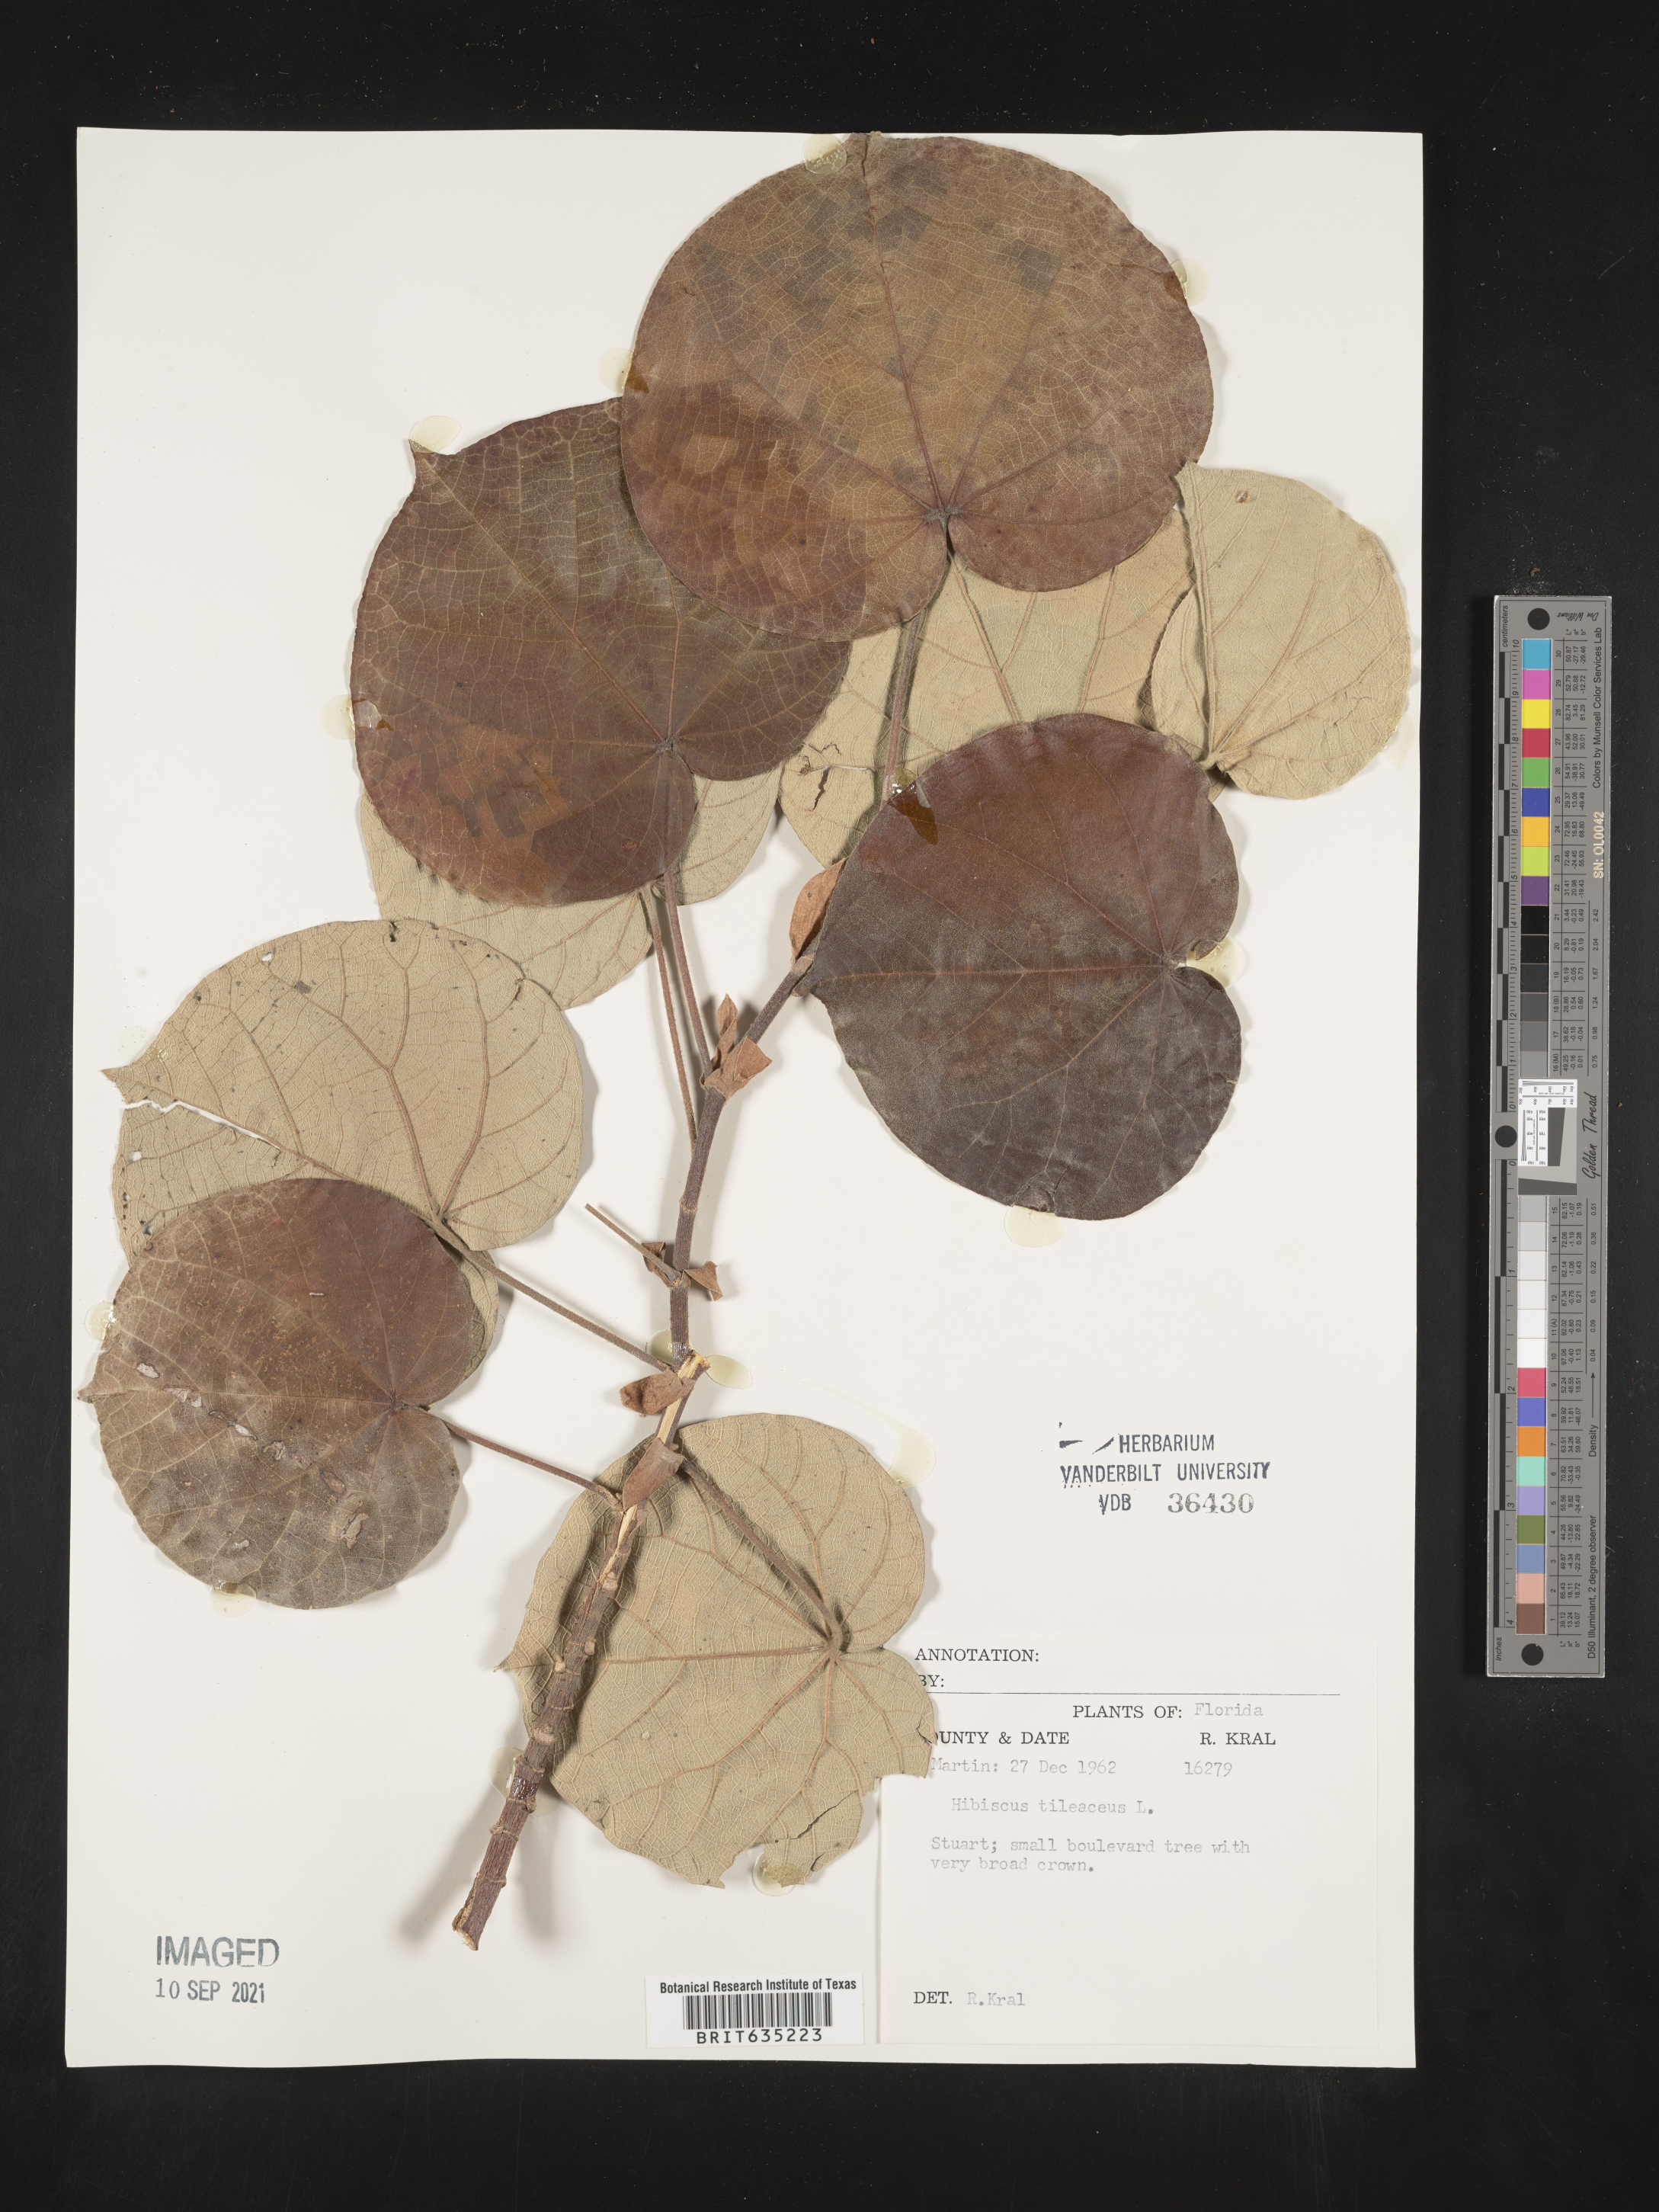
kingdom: Plantae
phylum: Tracheophyta
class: Magnoliopsida
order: Malvales
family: Malvaceae
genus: Hibiscus
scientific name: Hibiscus
